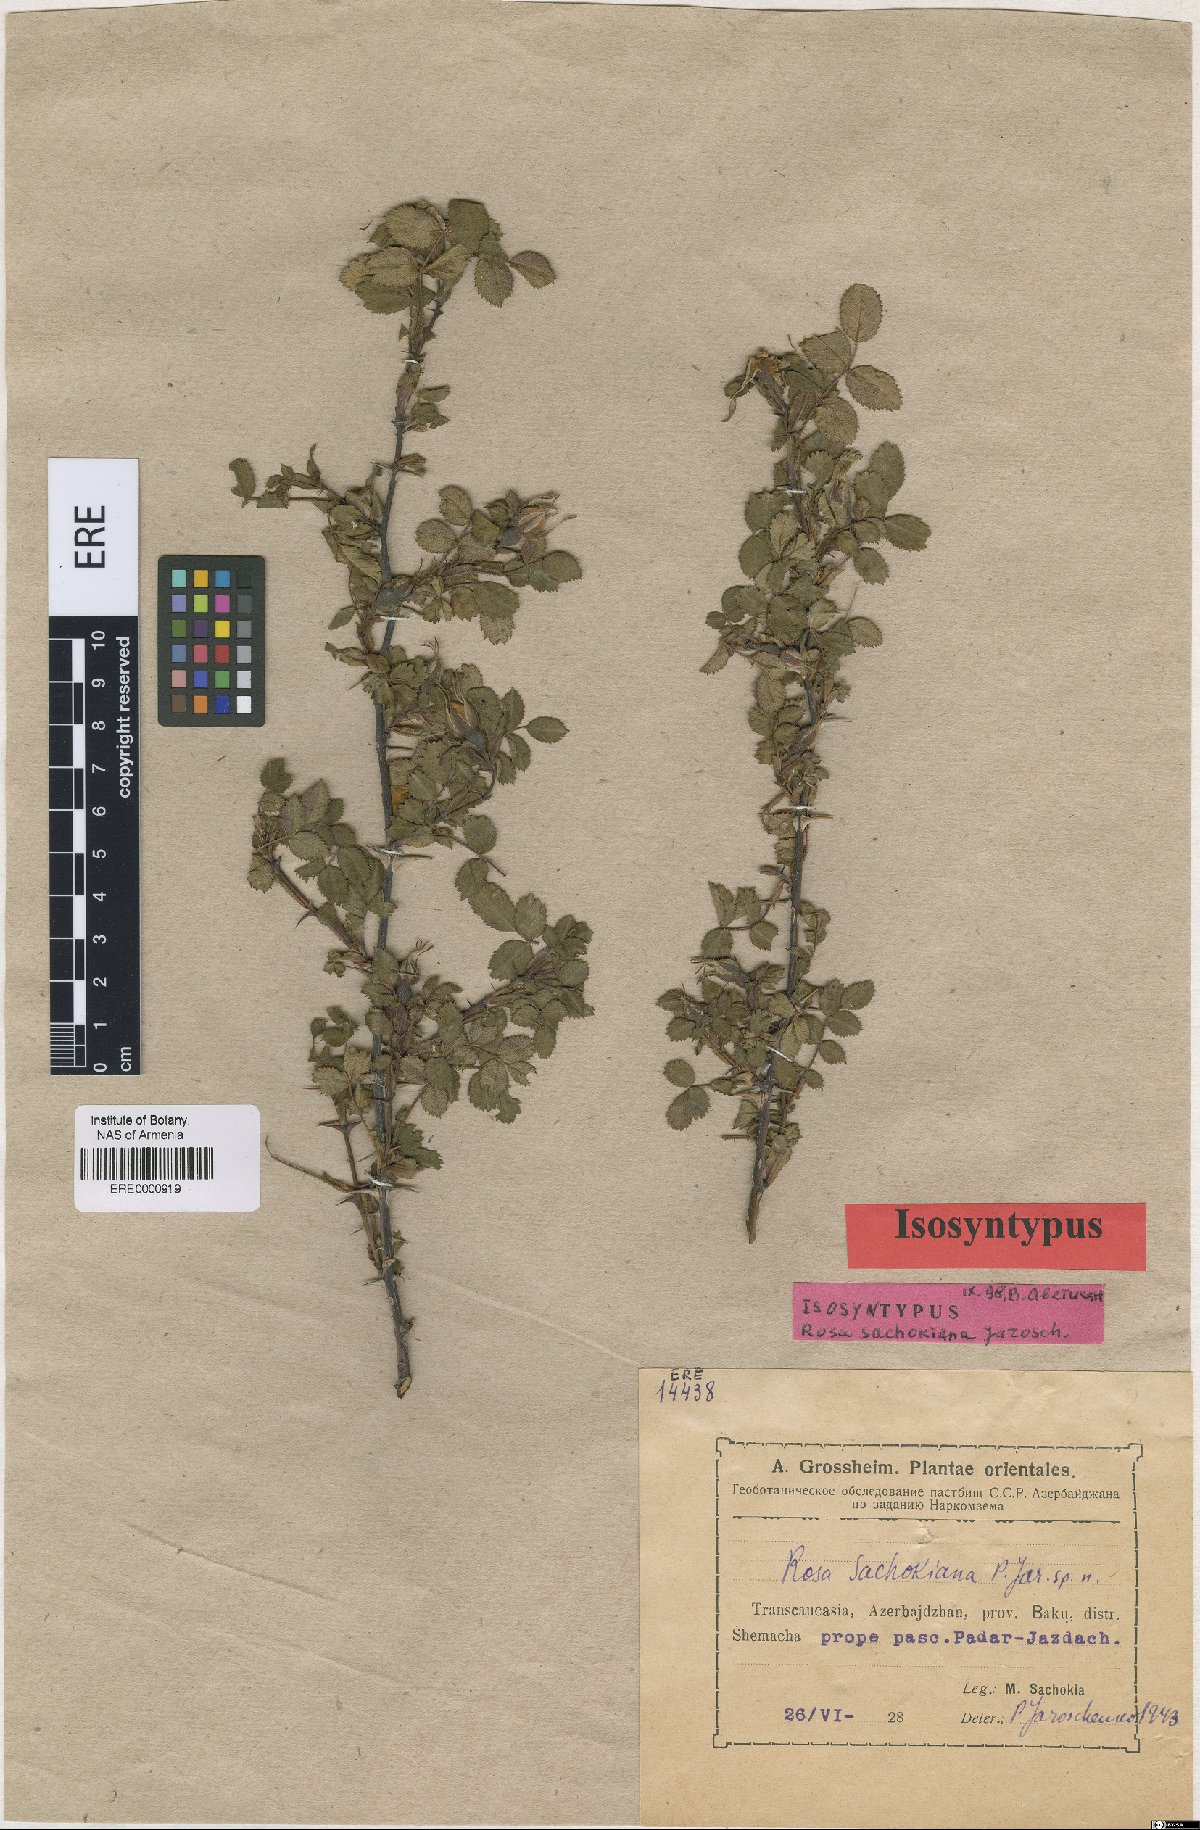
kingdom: Plantae
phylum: Tracheophyta
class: Magnoliopsida
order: Rosales
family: Rosaceae
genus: Rosa
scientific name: Rosa pulverulenta
